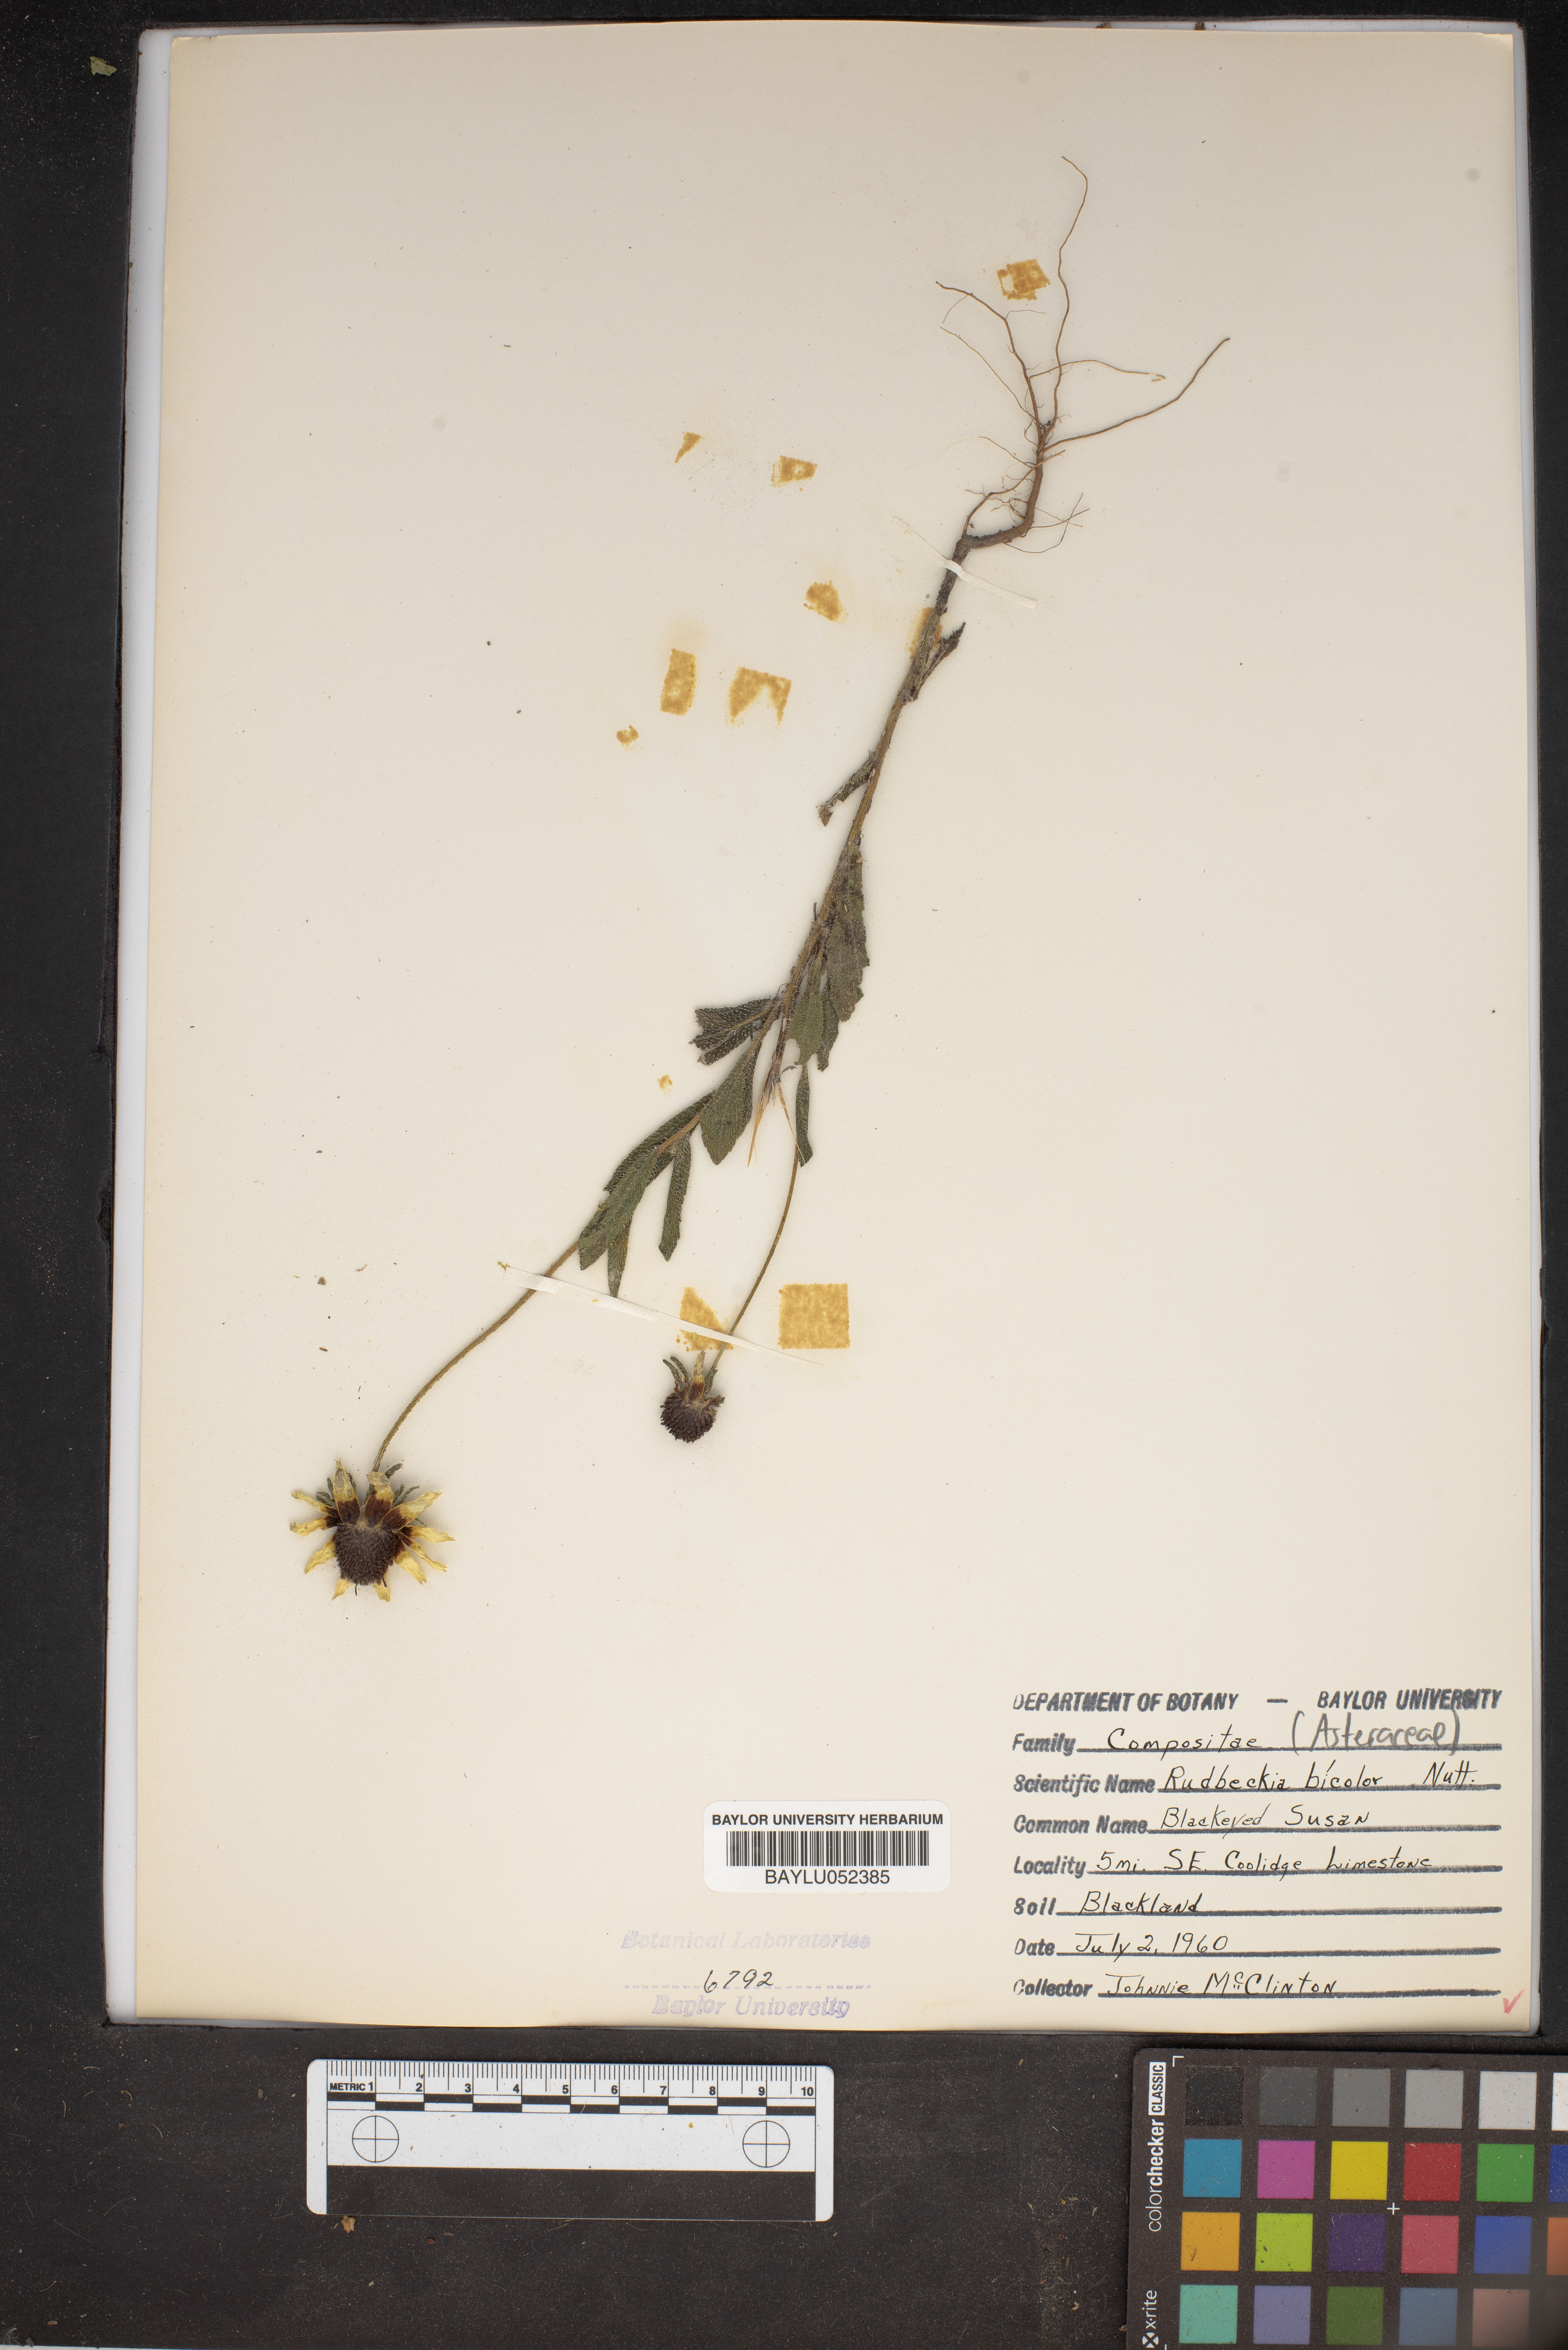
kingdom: Plantae
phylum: Tracheophyta
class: Magnoliopsida
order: Asterales
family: Asteraceae
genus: Rudbeckia
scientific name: Rudbeckia hirta
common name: Black-eyed-susan
